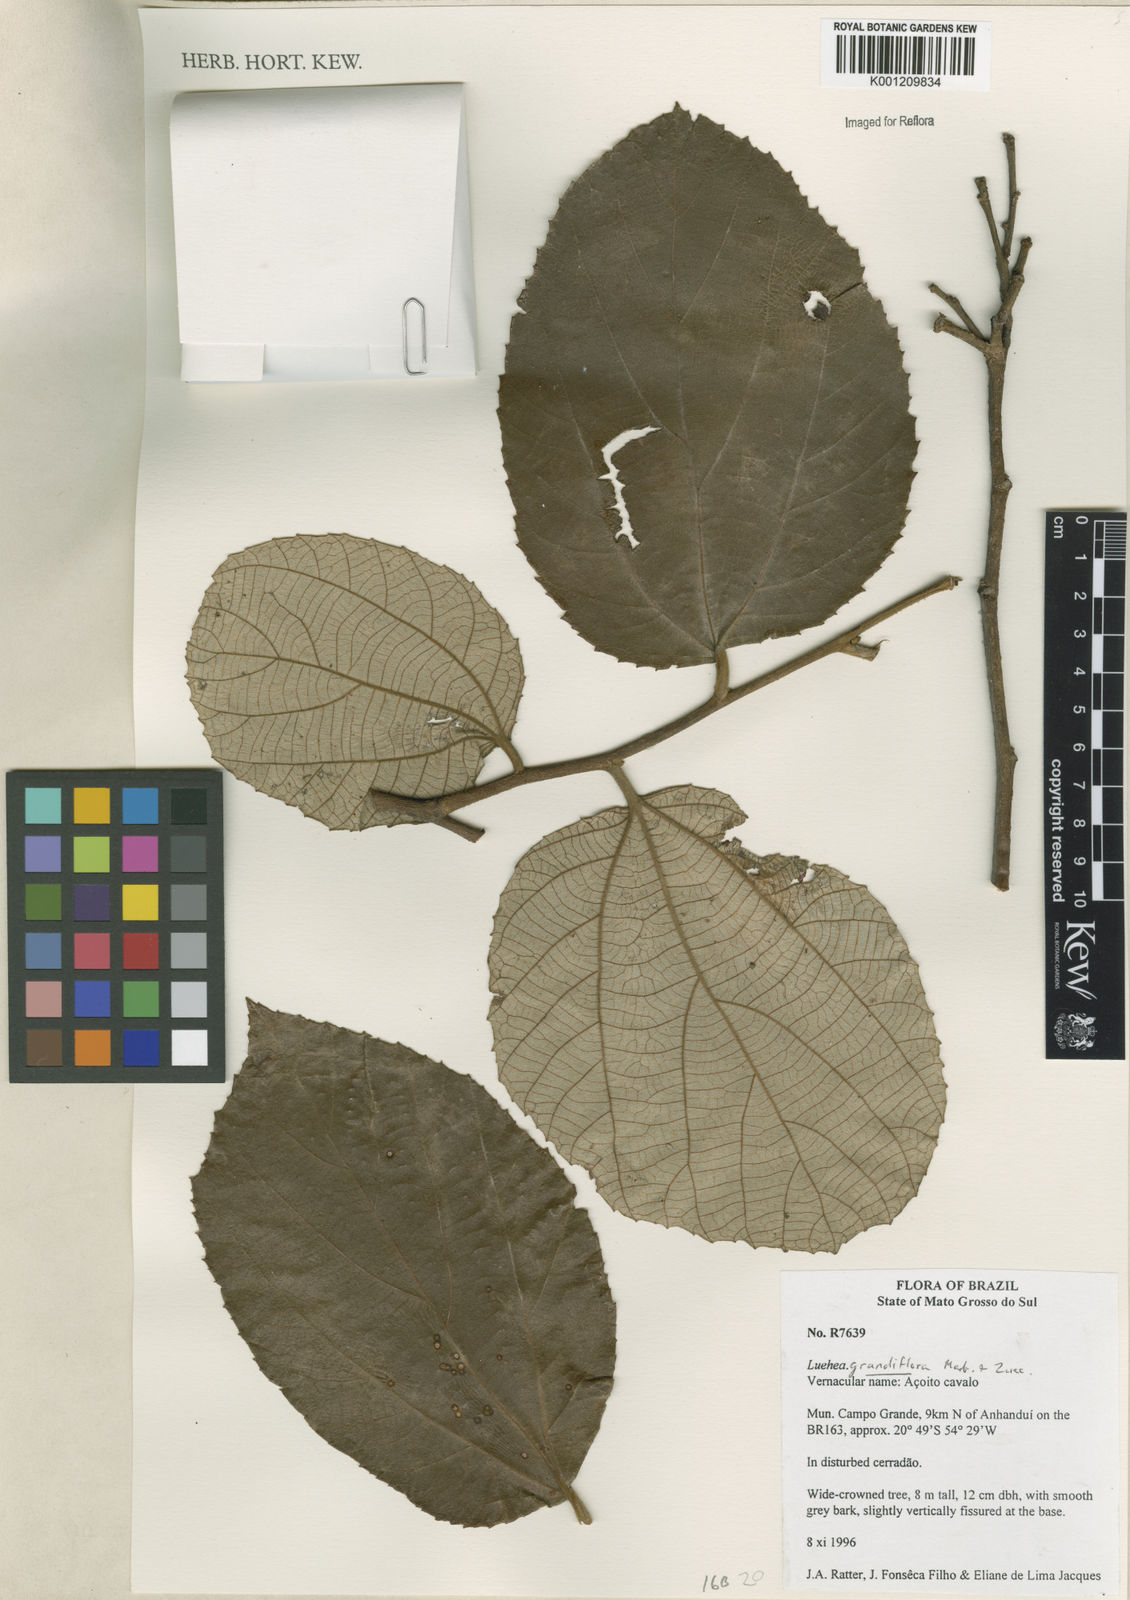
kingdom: Plantae
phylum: Tracheophyta
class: Magnoliopsida
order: Malvales
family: Malvaceae
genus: Luehea
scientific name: Luehea grandiflora
